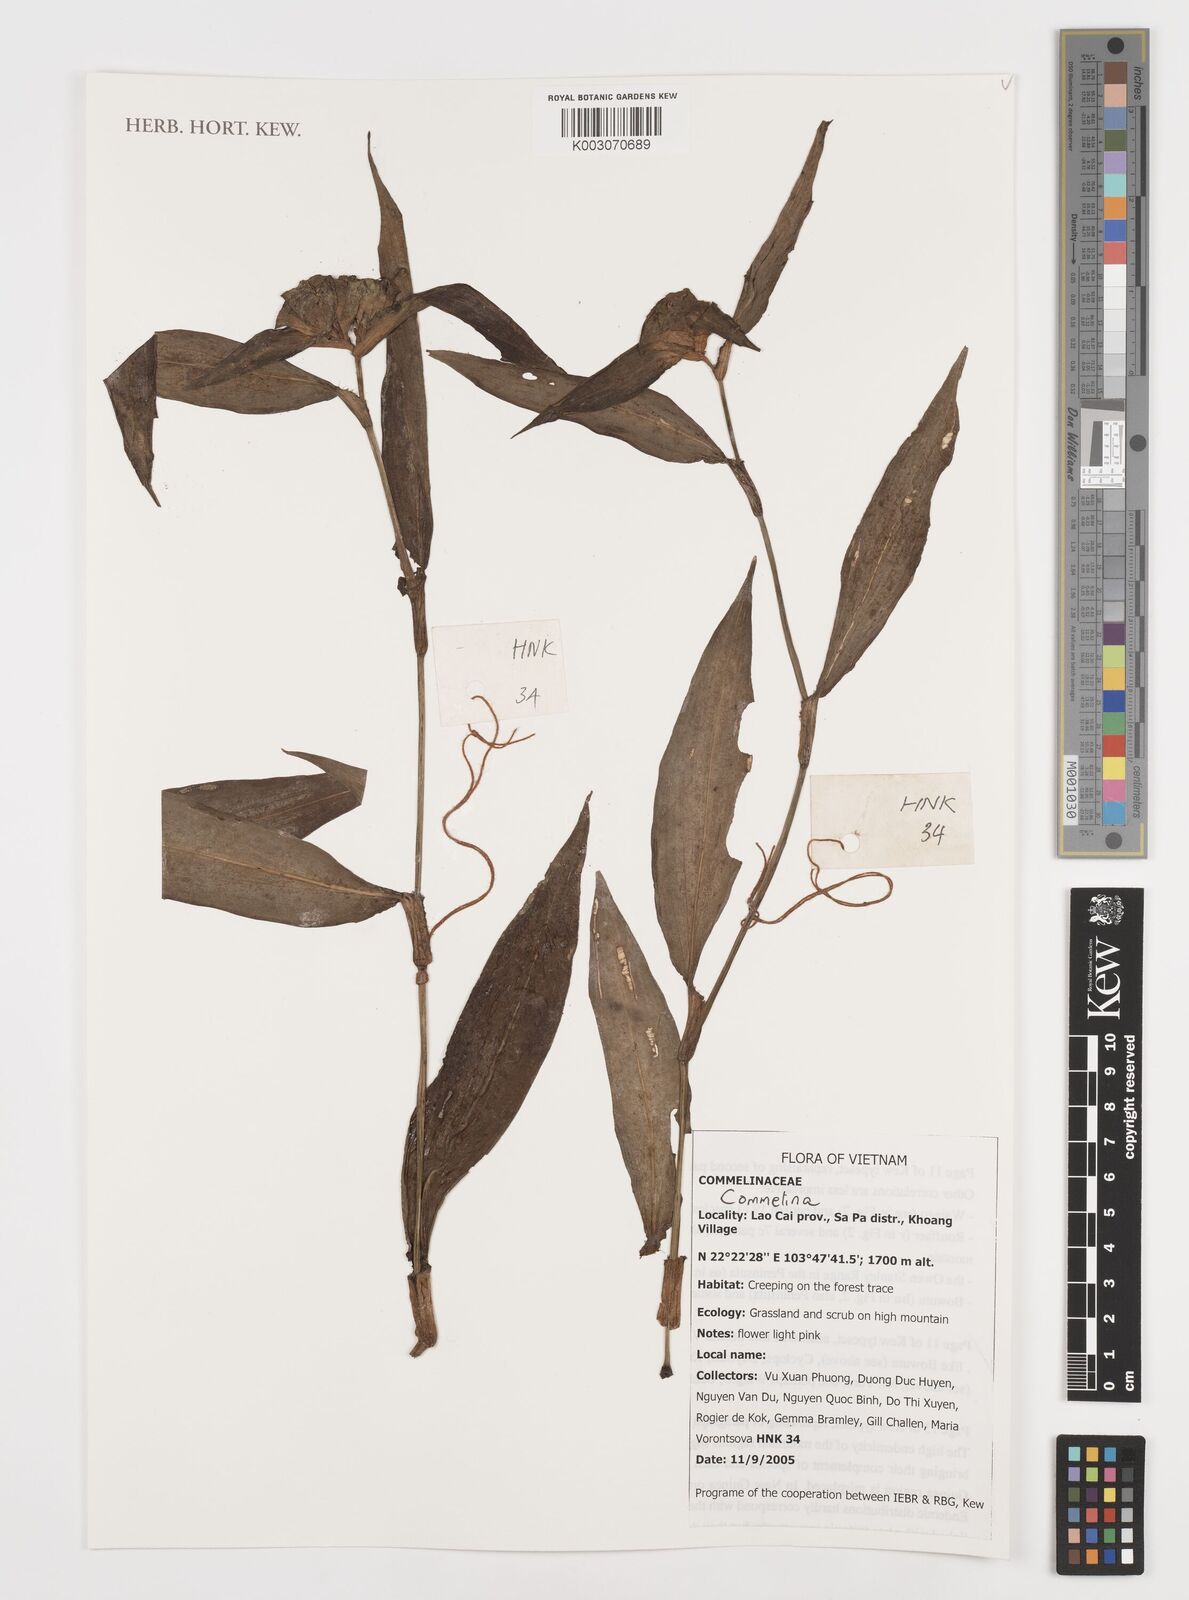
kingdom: Plantae
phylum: Tracheophyta
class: Liliopsida
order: Commelinales
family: Commelinaceae
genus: Commelina
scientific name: Commelina
